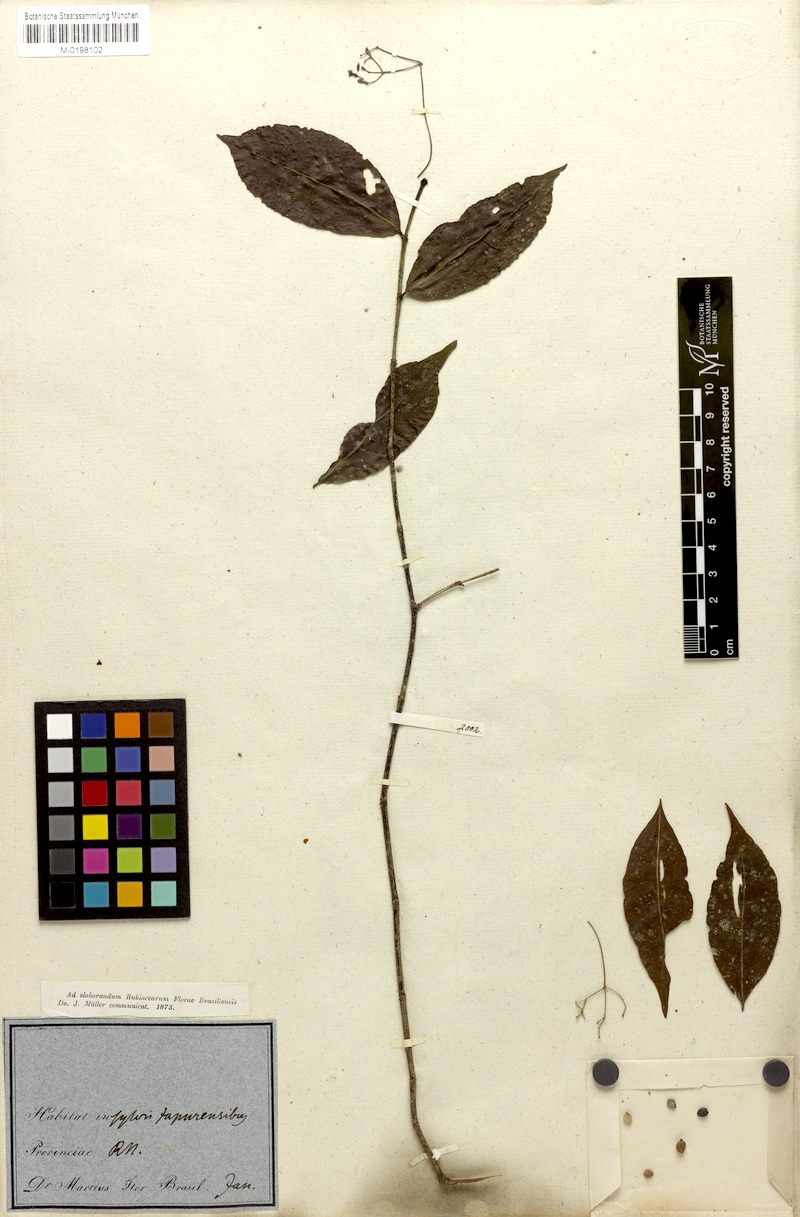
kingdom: Plantae
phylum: Tracheophyta
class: Magnoliopsida
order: Gentianales
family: Rubiaceae
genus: Psychotria
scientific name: Psychotria capillacea
